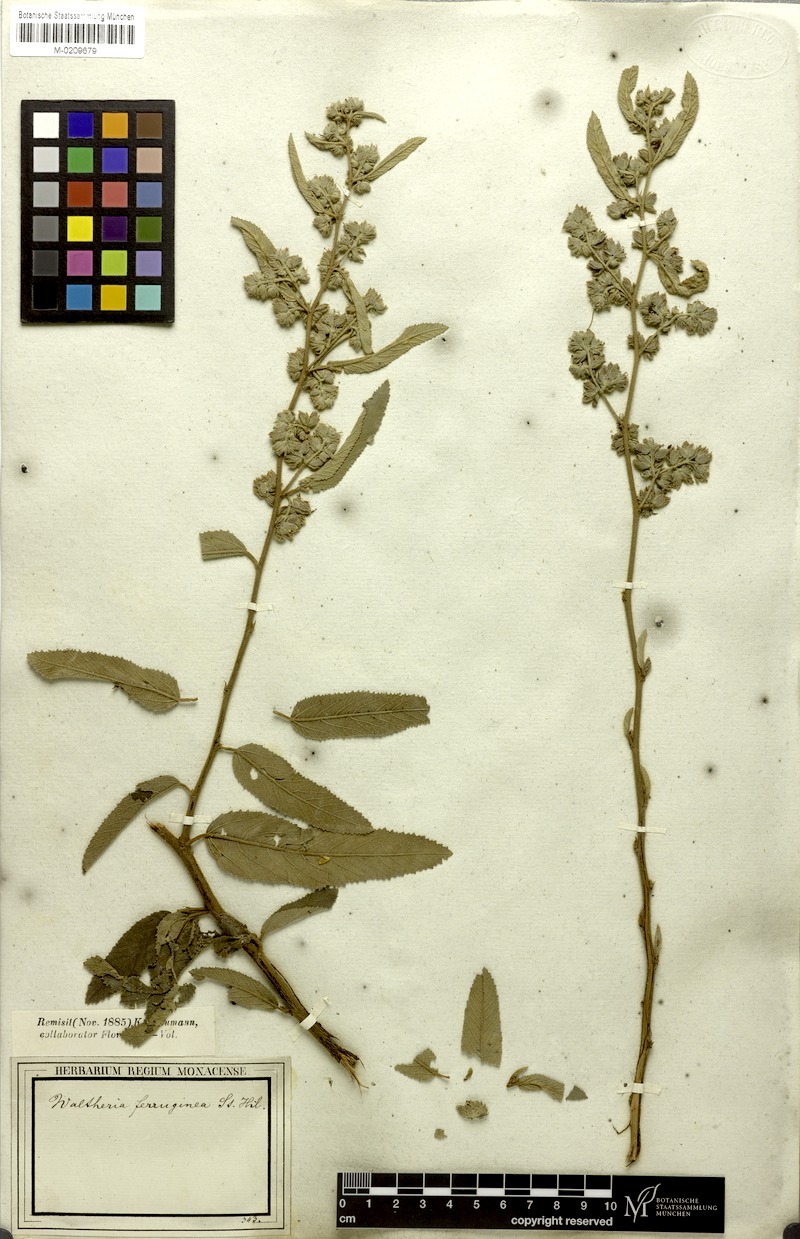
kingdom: Plantae
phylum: Tracheophyta
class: Magnoliopsida
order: Malvales
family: Malvaceae
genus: Waltheria
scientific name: Waltheria ferruginea
